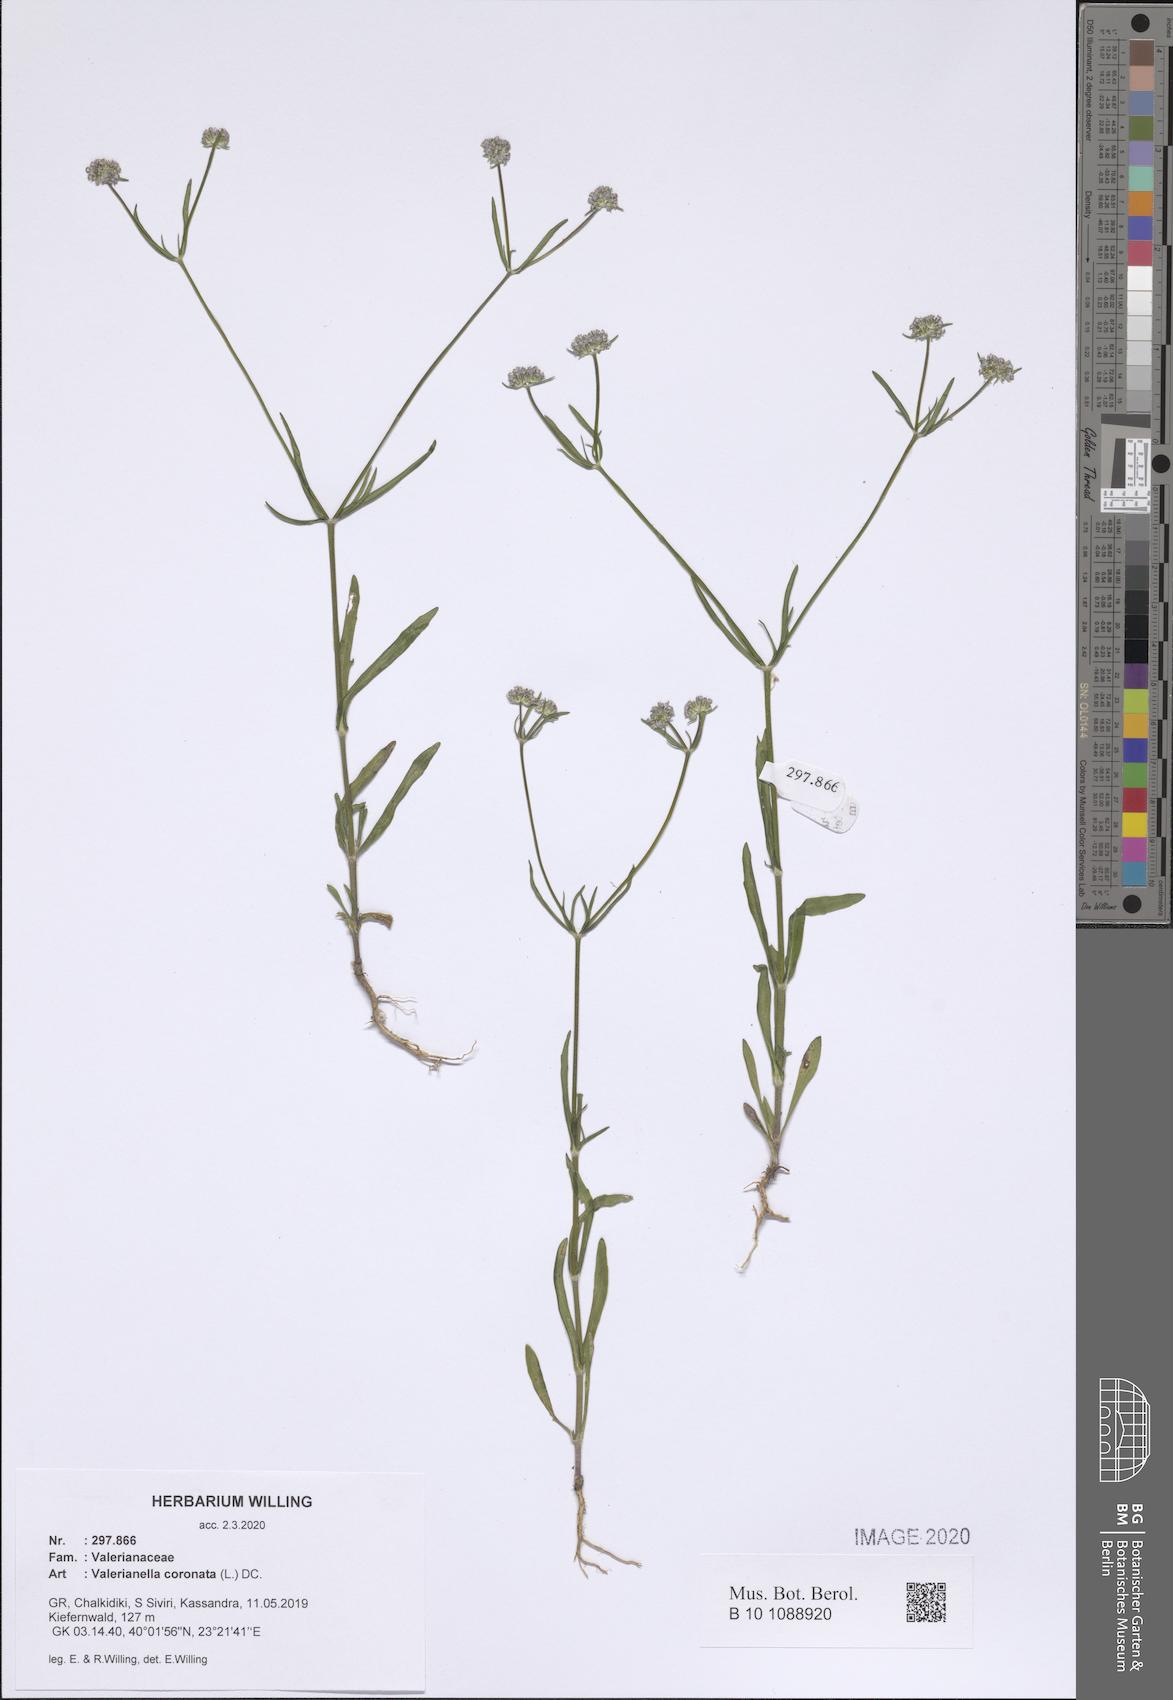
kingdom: Plantae
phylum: Tracheophyta
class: Magnoliopsida
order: Dipsacales
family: Caprifoliaceae
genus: Valerianella
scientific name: Valerianella coronata
